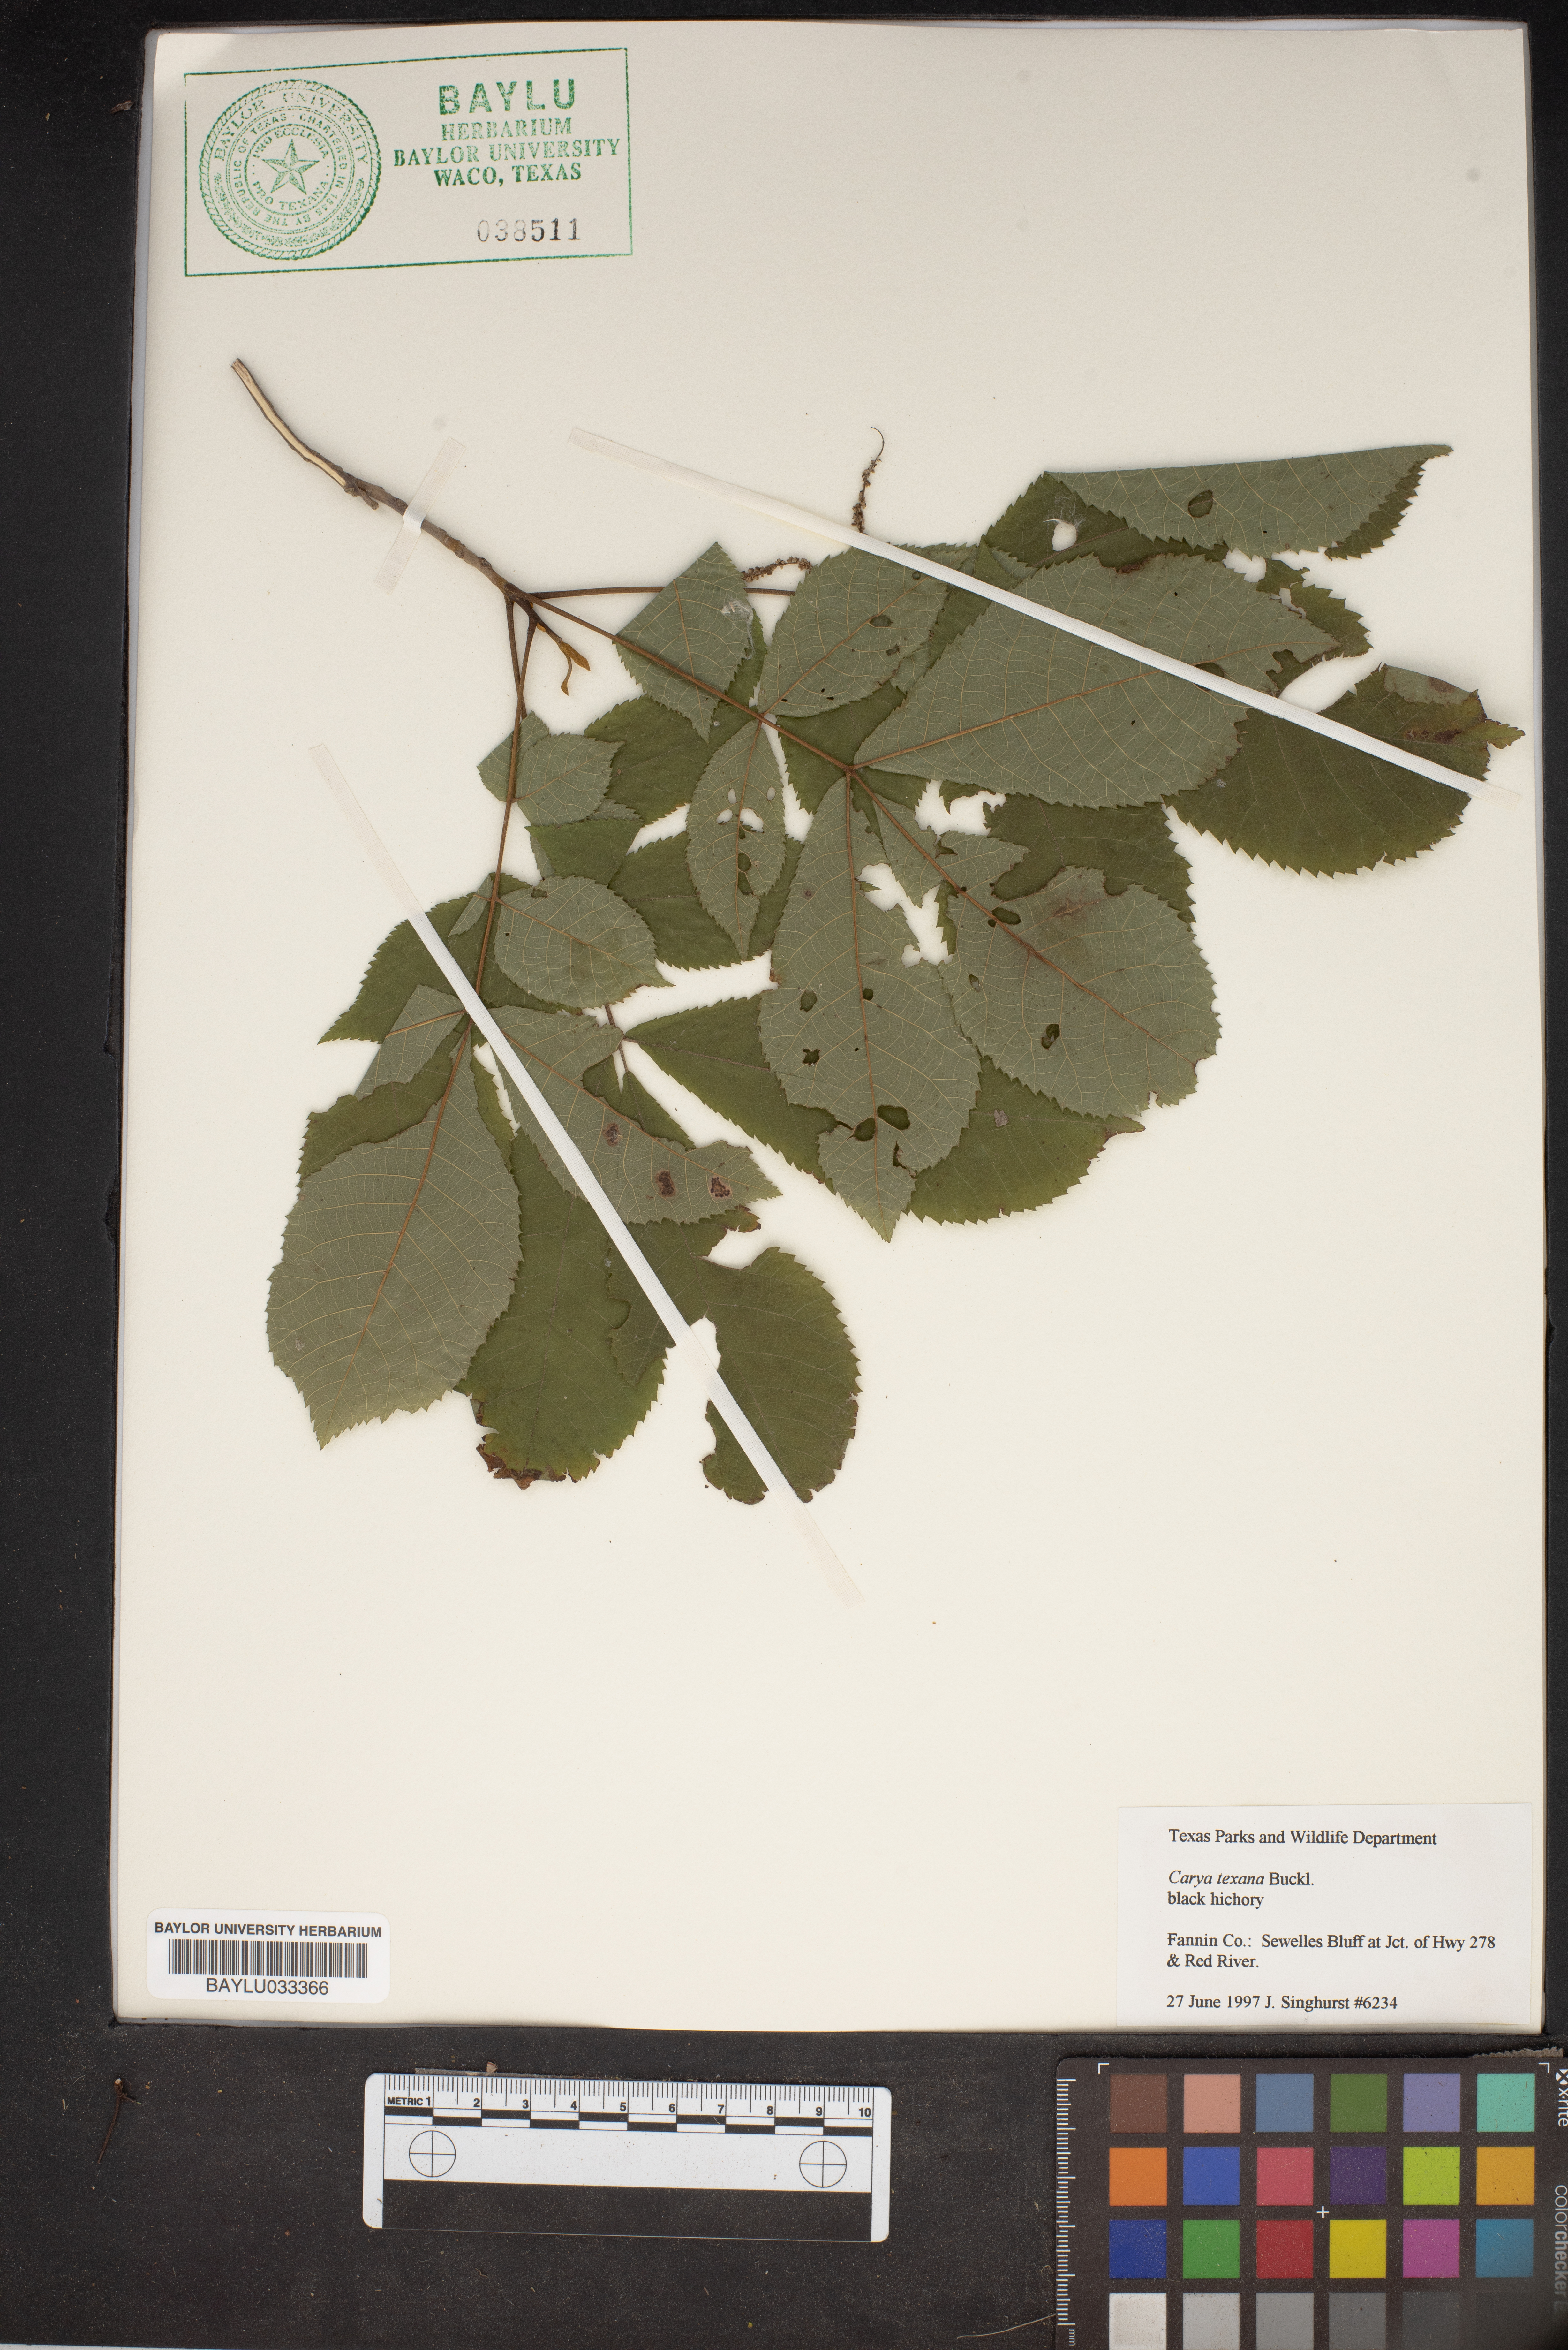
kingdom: Plantae
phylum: Tracheophyta
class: Magnoliopsida
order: Fagales
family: Juglandaceae
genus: Carya
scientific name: Carya texana
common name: Black hickory
